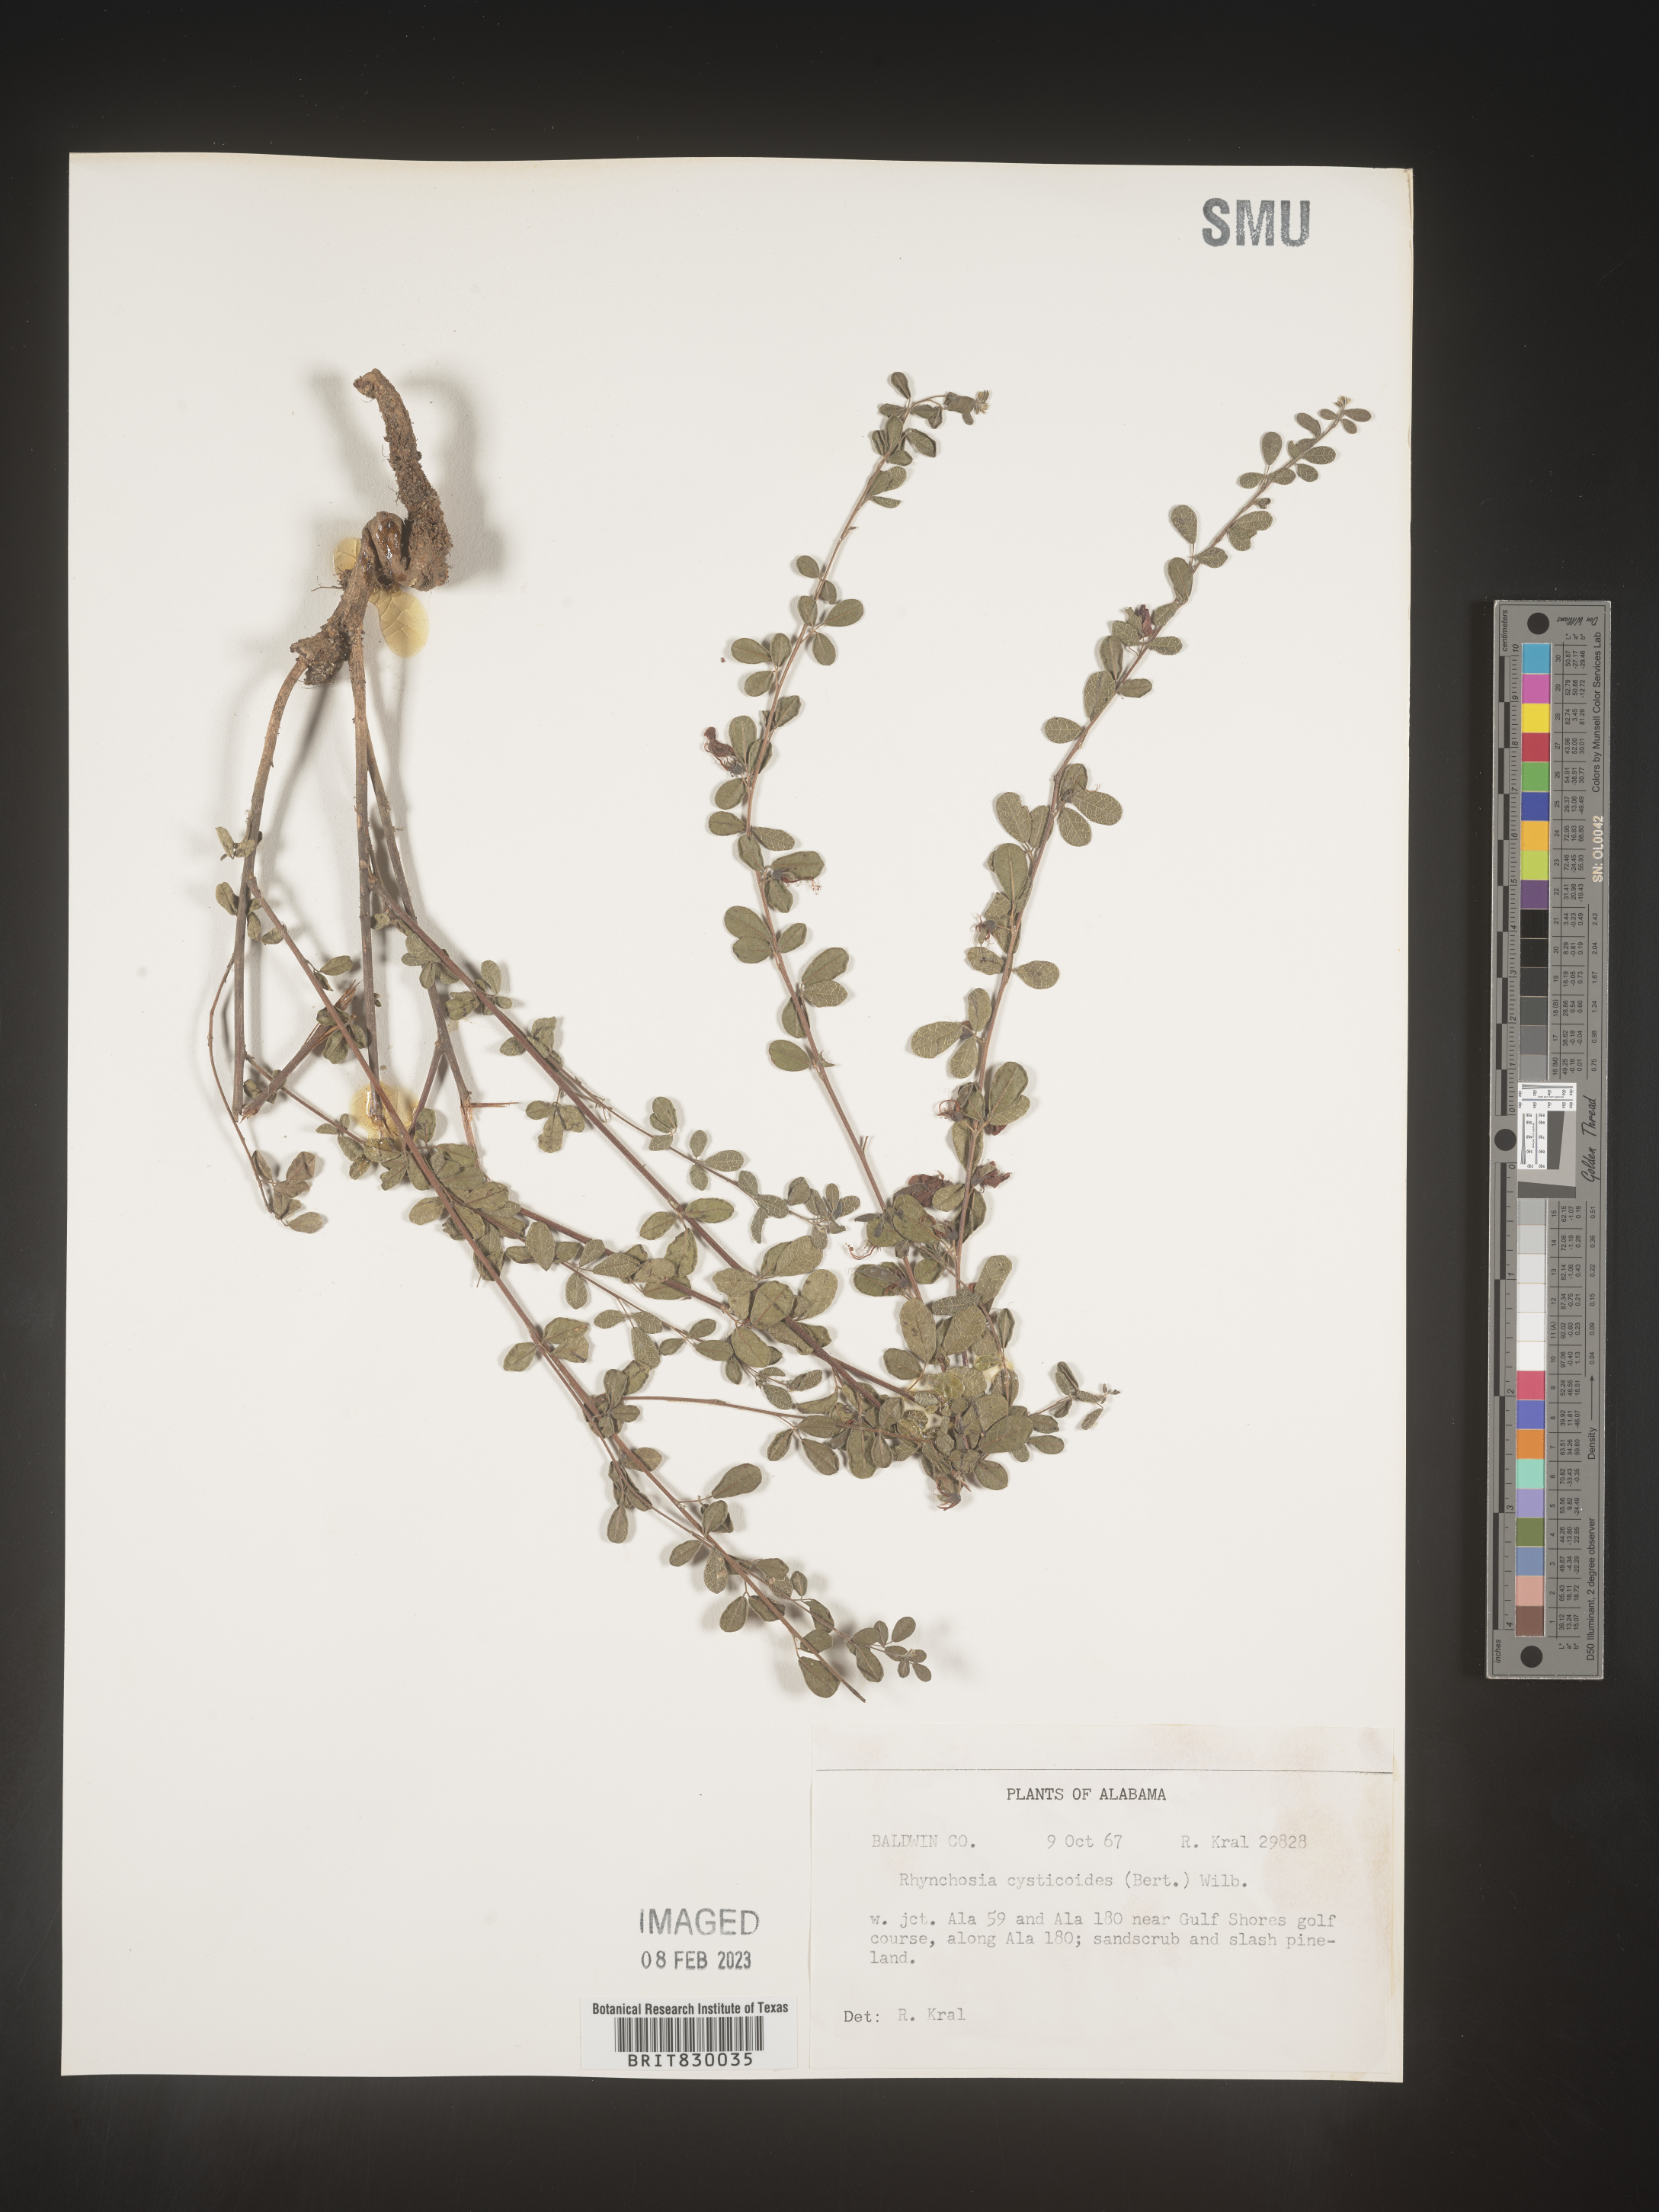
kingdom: Plantae
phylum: Tracheophyta
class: Magnoliopsida
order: Fabales
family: Fabaceae
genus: Rhynchosia
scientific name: Rhynchosia
